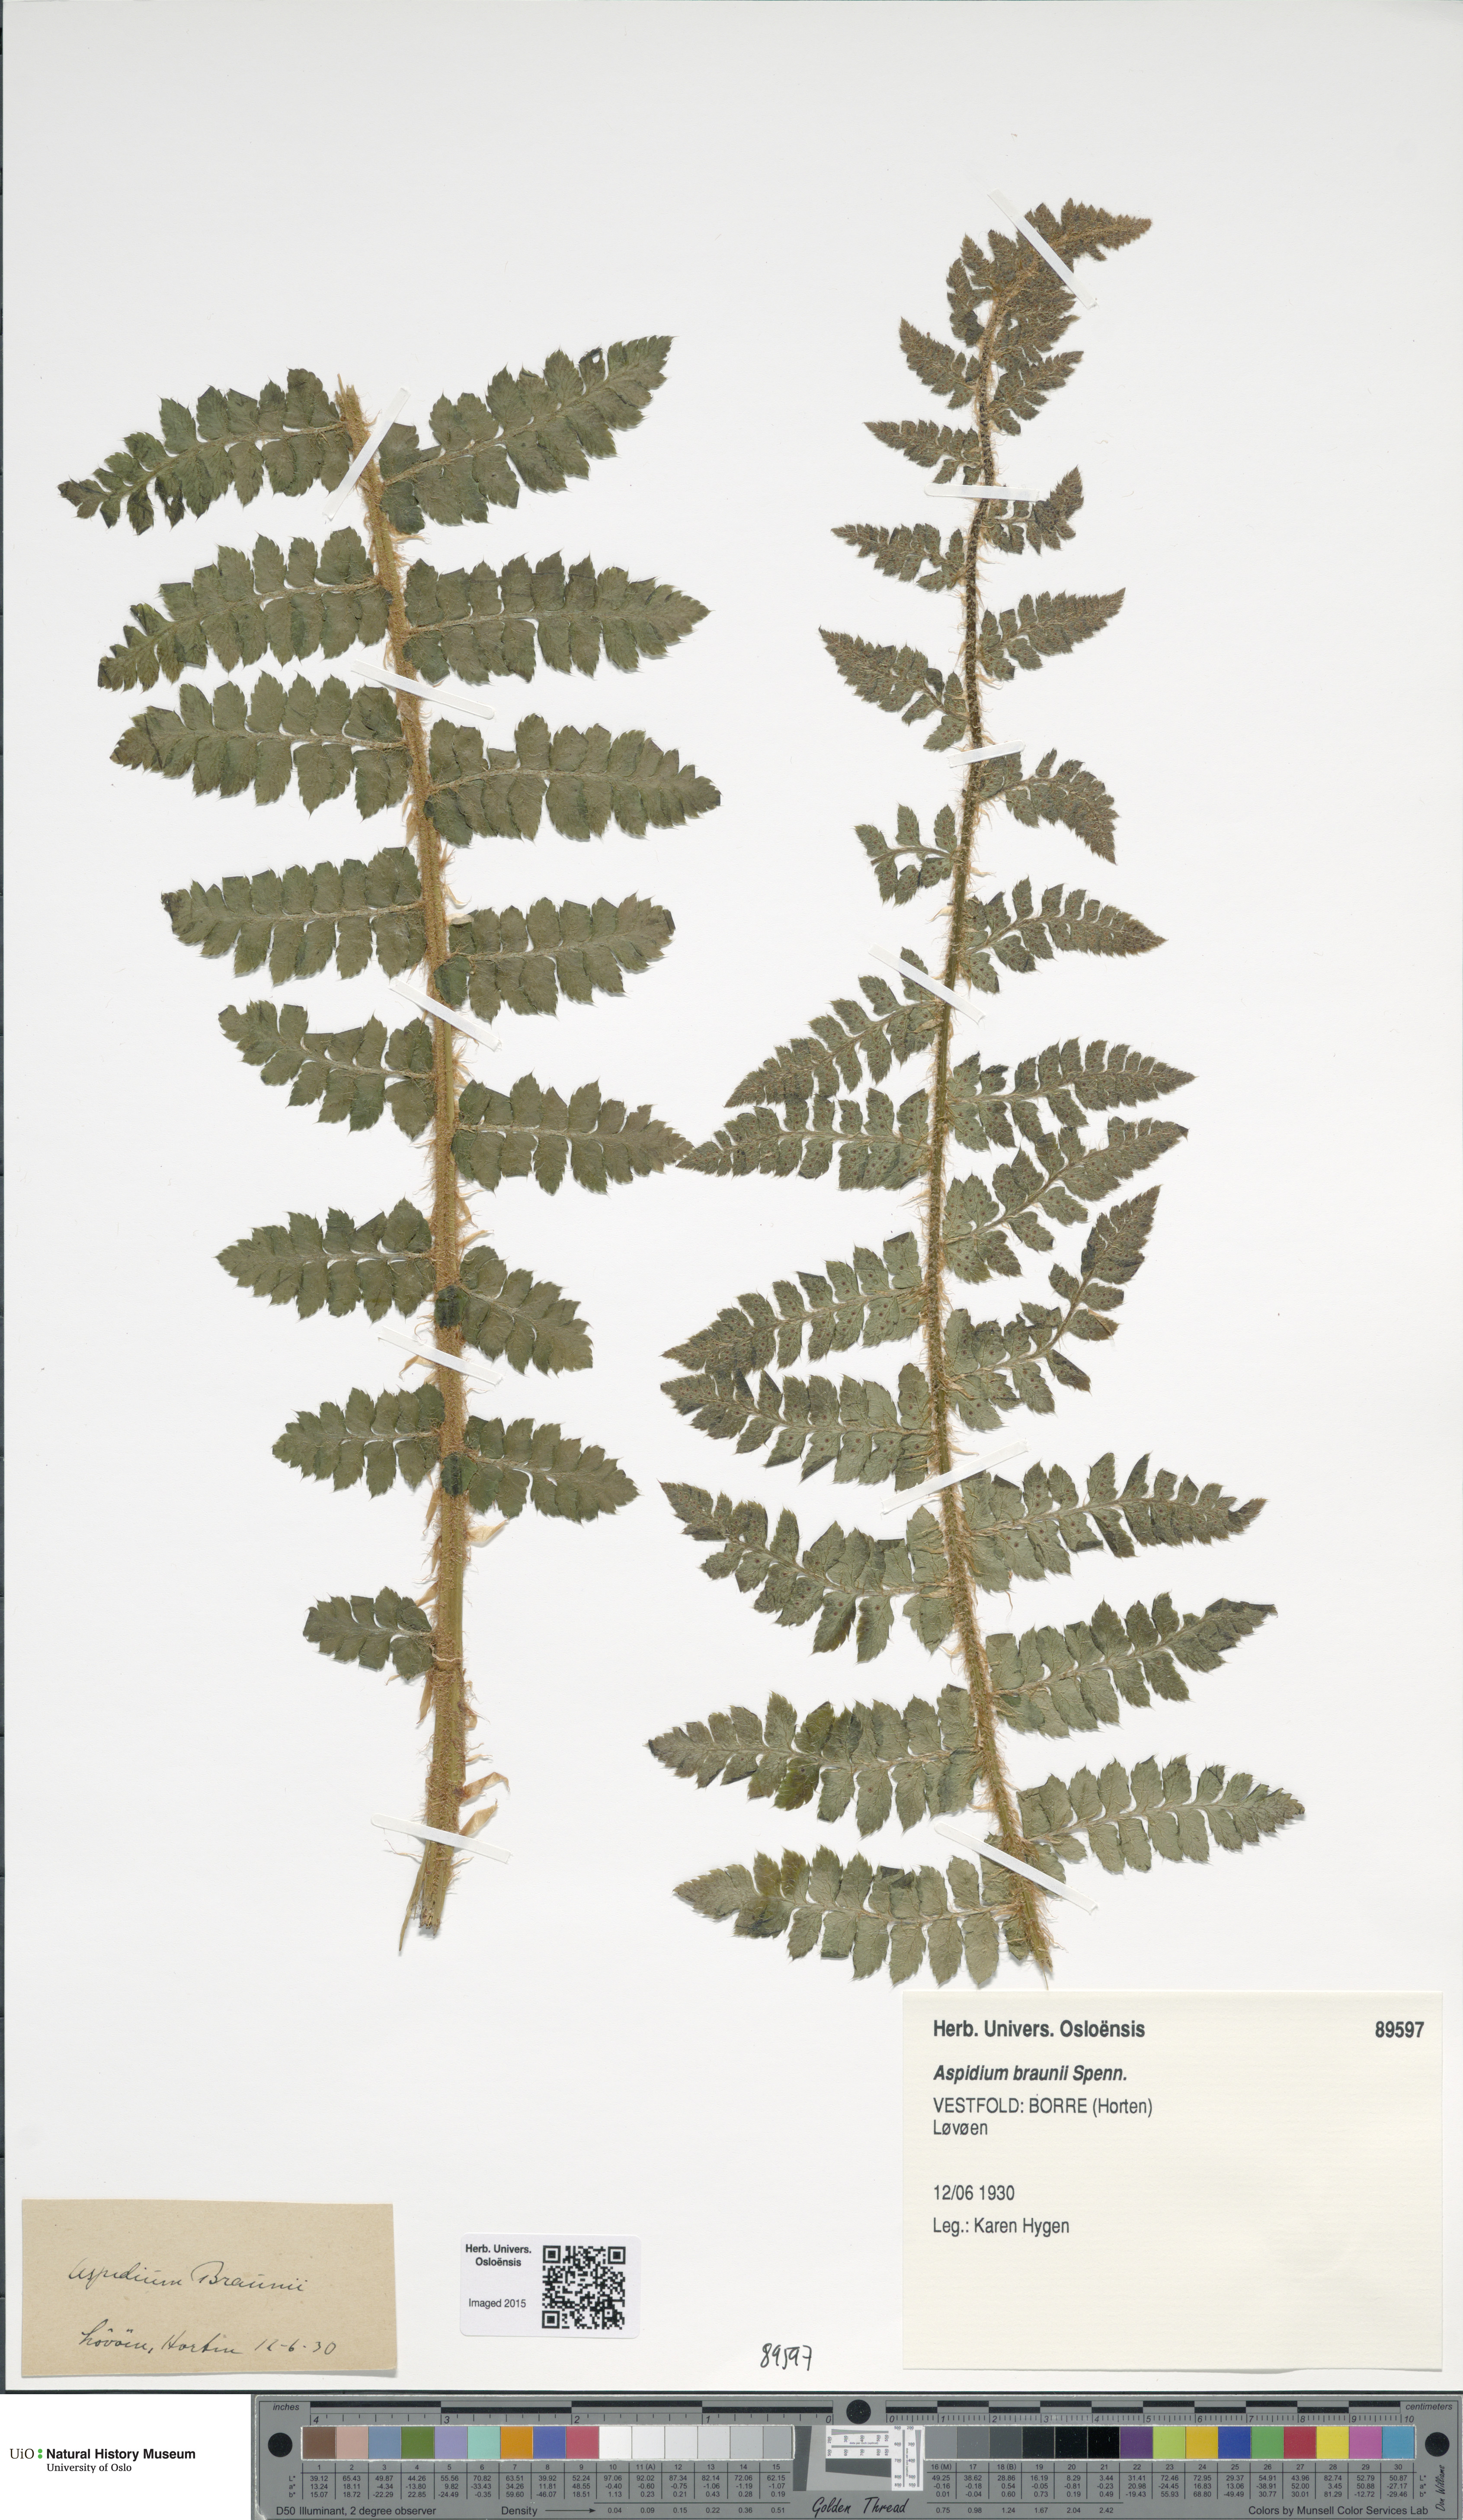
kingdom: Plantae
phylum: Tracheophyta
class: Polypodiopsida
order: Polypodiales
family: Dryopteridaceae
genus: Polystichum
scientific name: Polystichum braunii
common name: Braun's holly fern
